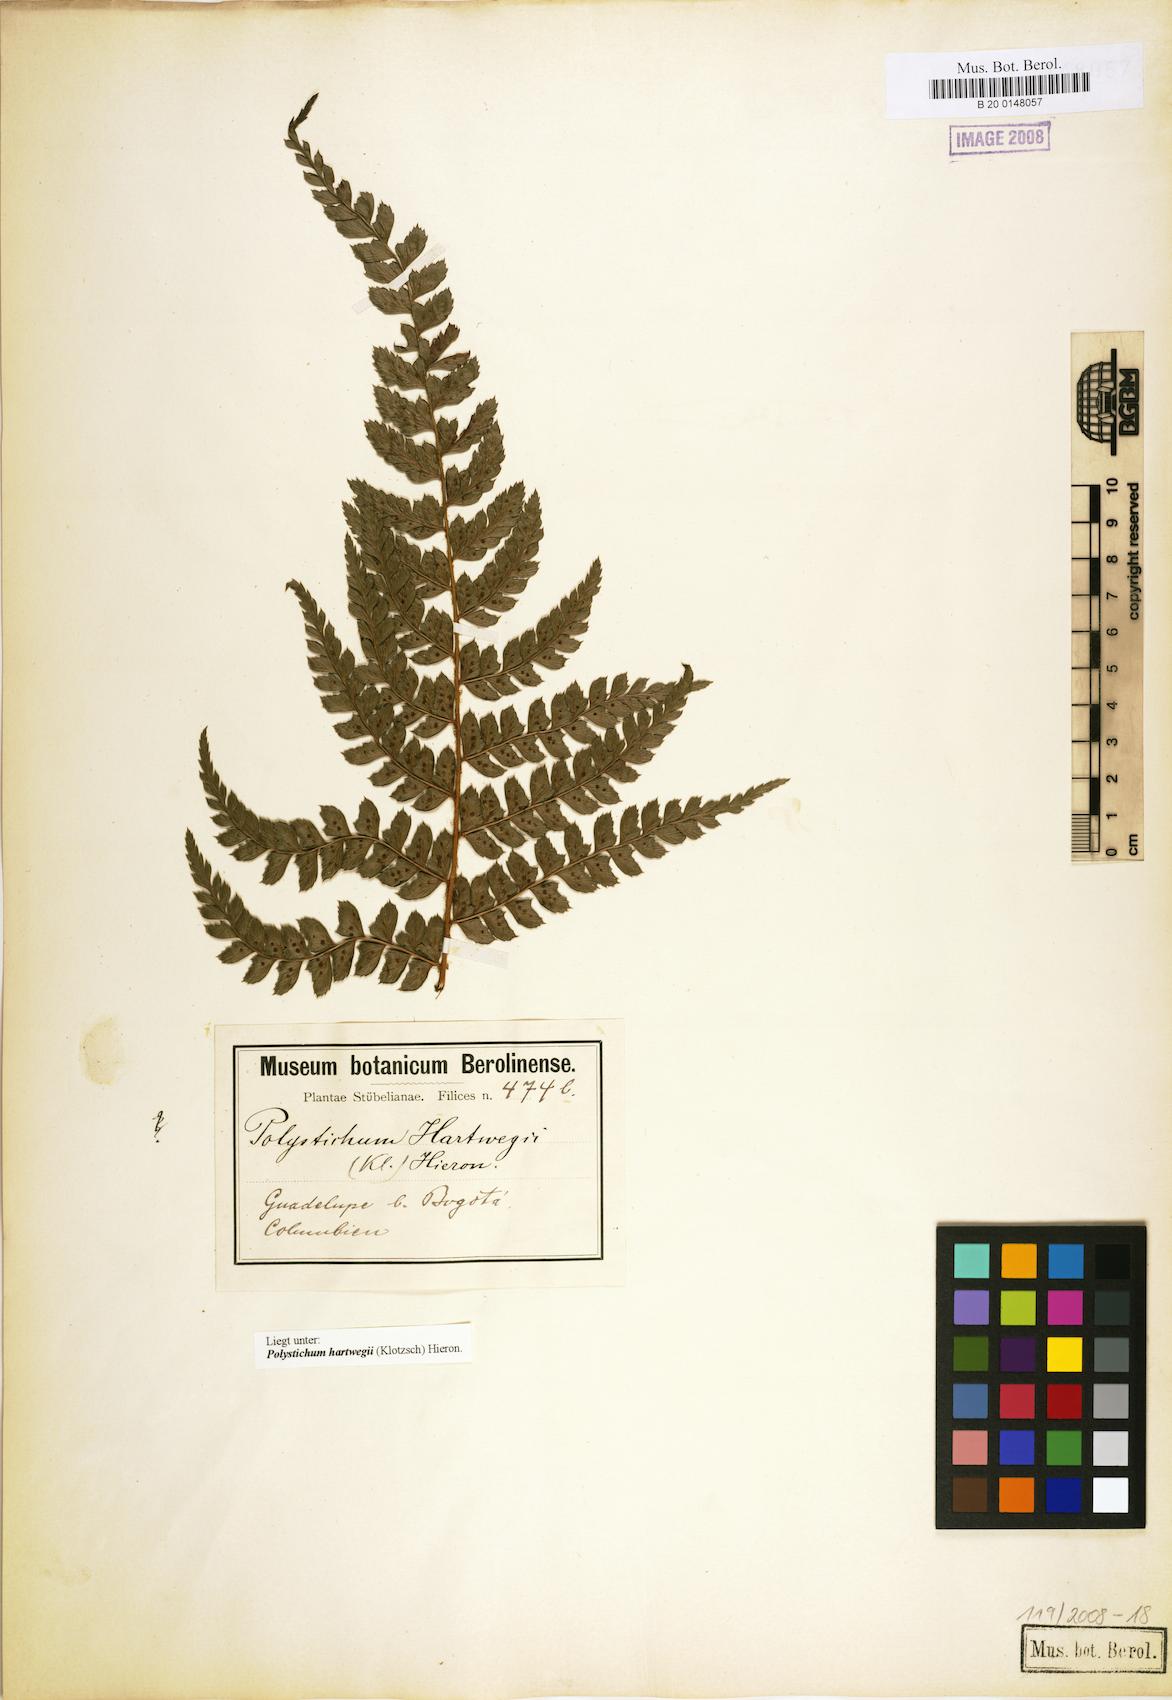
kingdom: Plantae
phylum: Tracheophyta
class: Polypodiopsida
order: Polypodiales
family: Dryopteridaceae
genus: Polystichum
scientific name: Polystichum hartwegii
